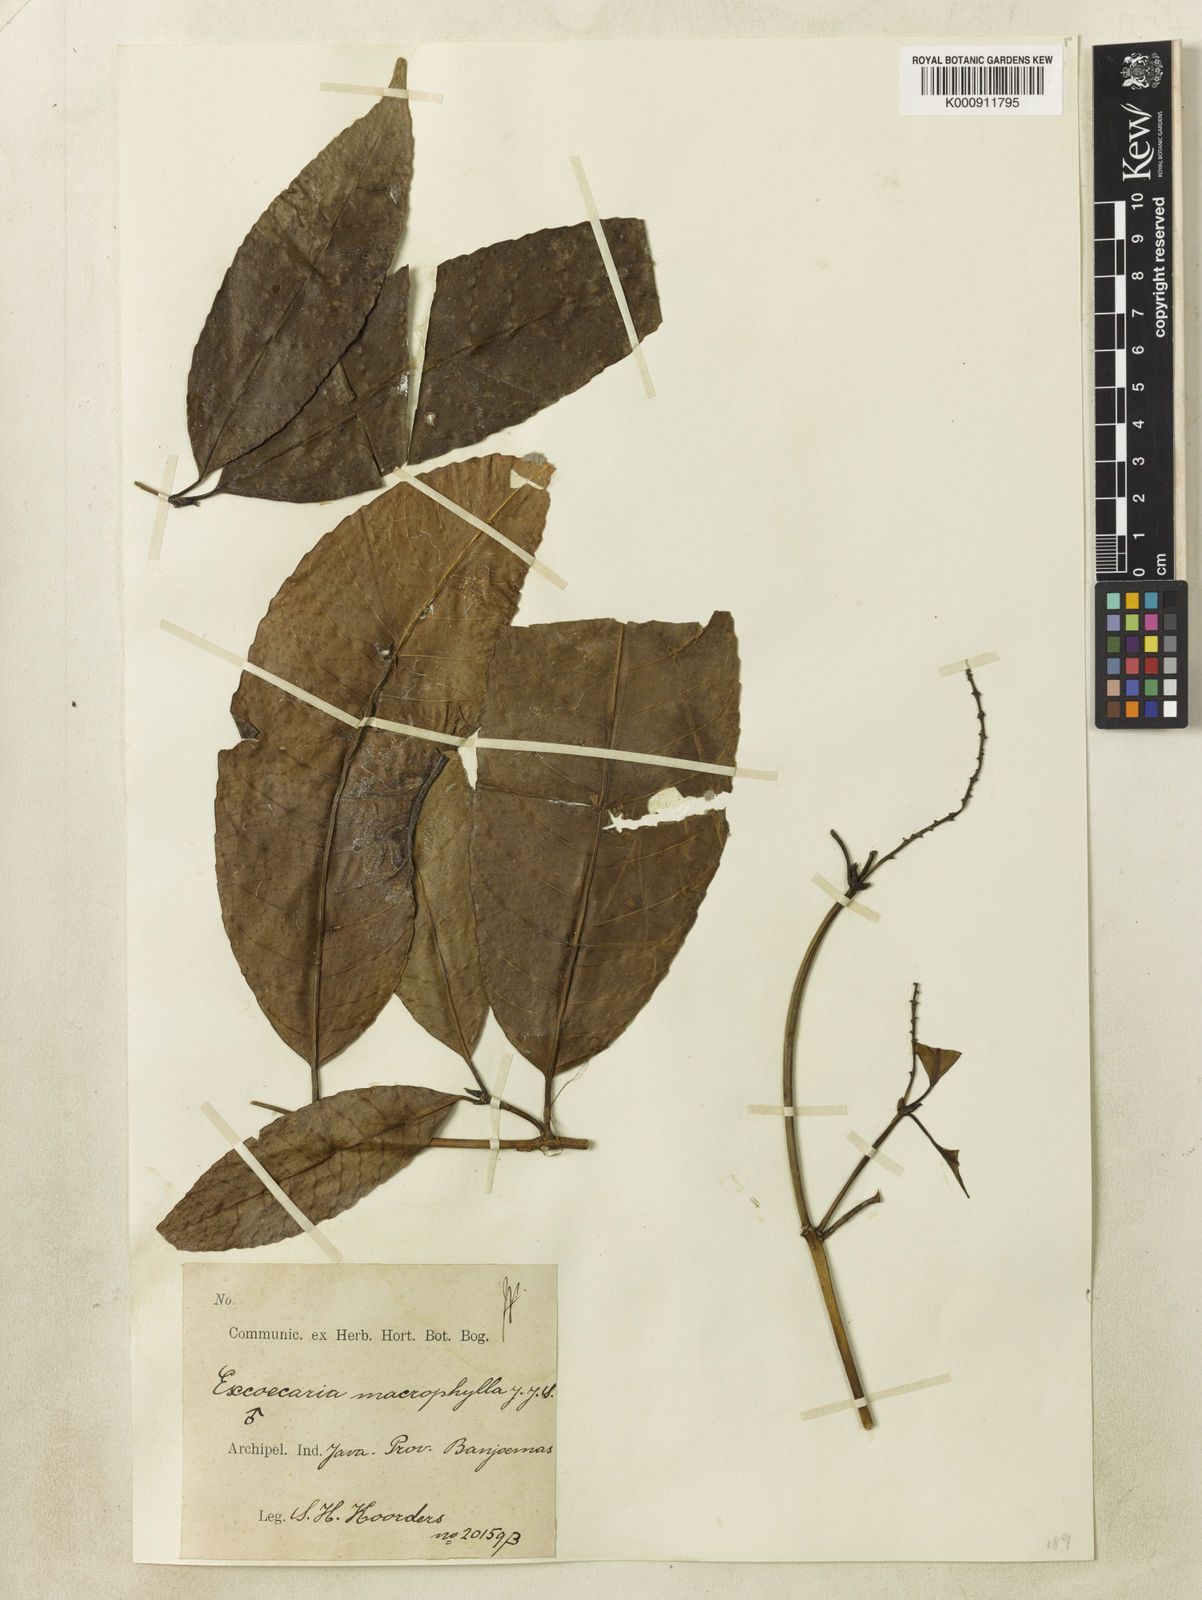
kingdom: Plantae
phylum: Tracheophyta
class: Magnoliopsida
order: Malpighiales
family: Euphorbiaceae
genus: Excoecaria
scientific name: Excoecaria
